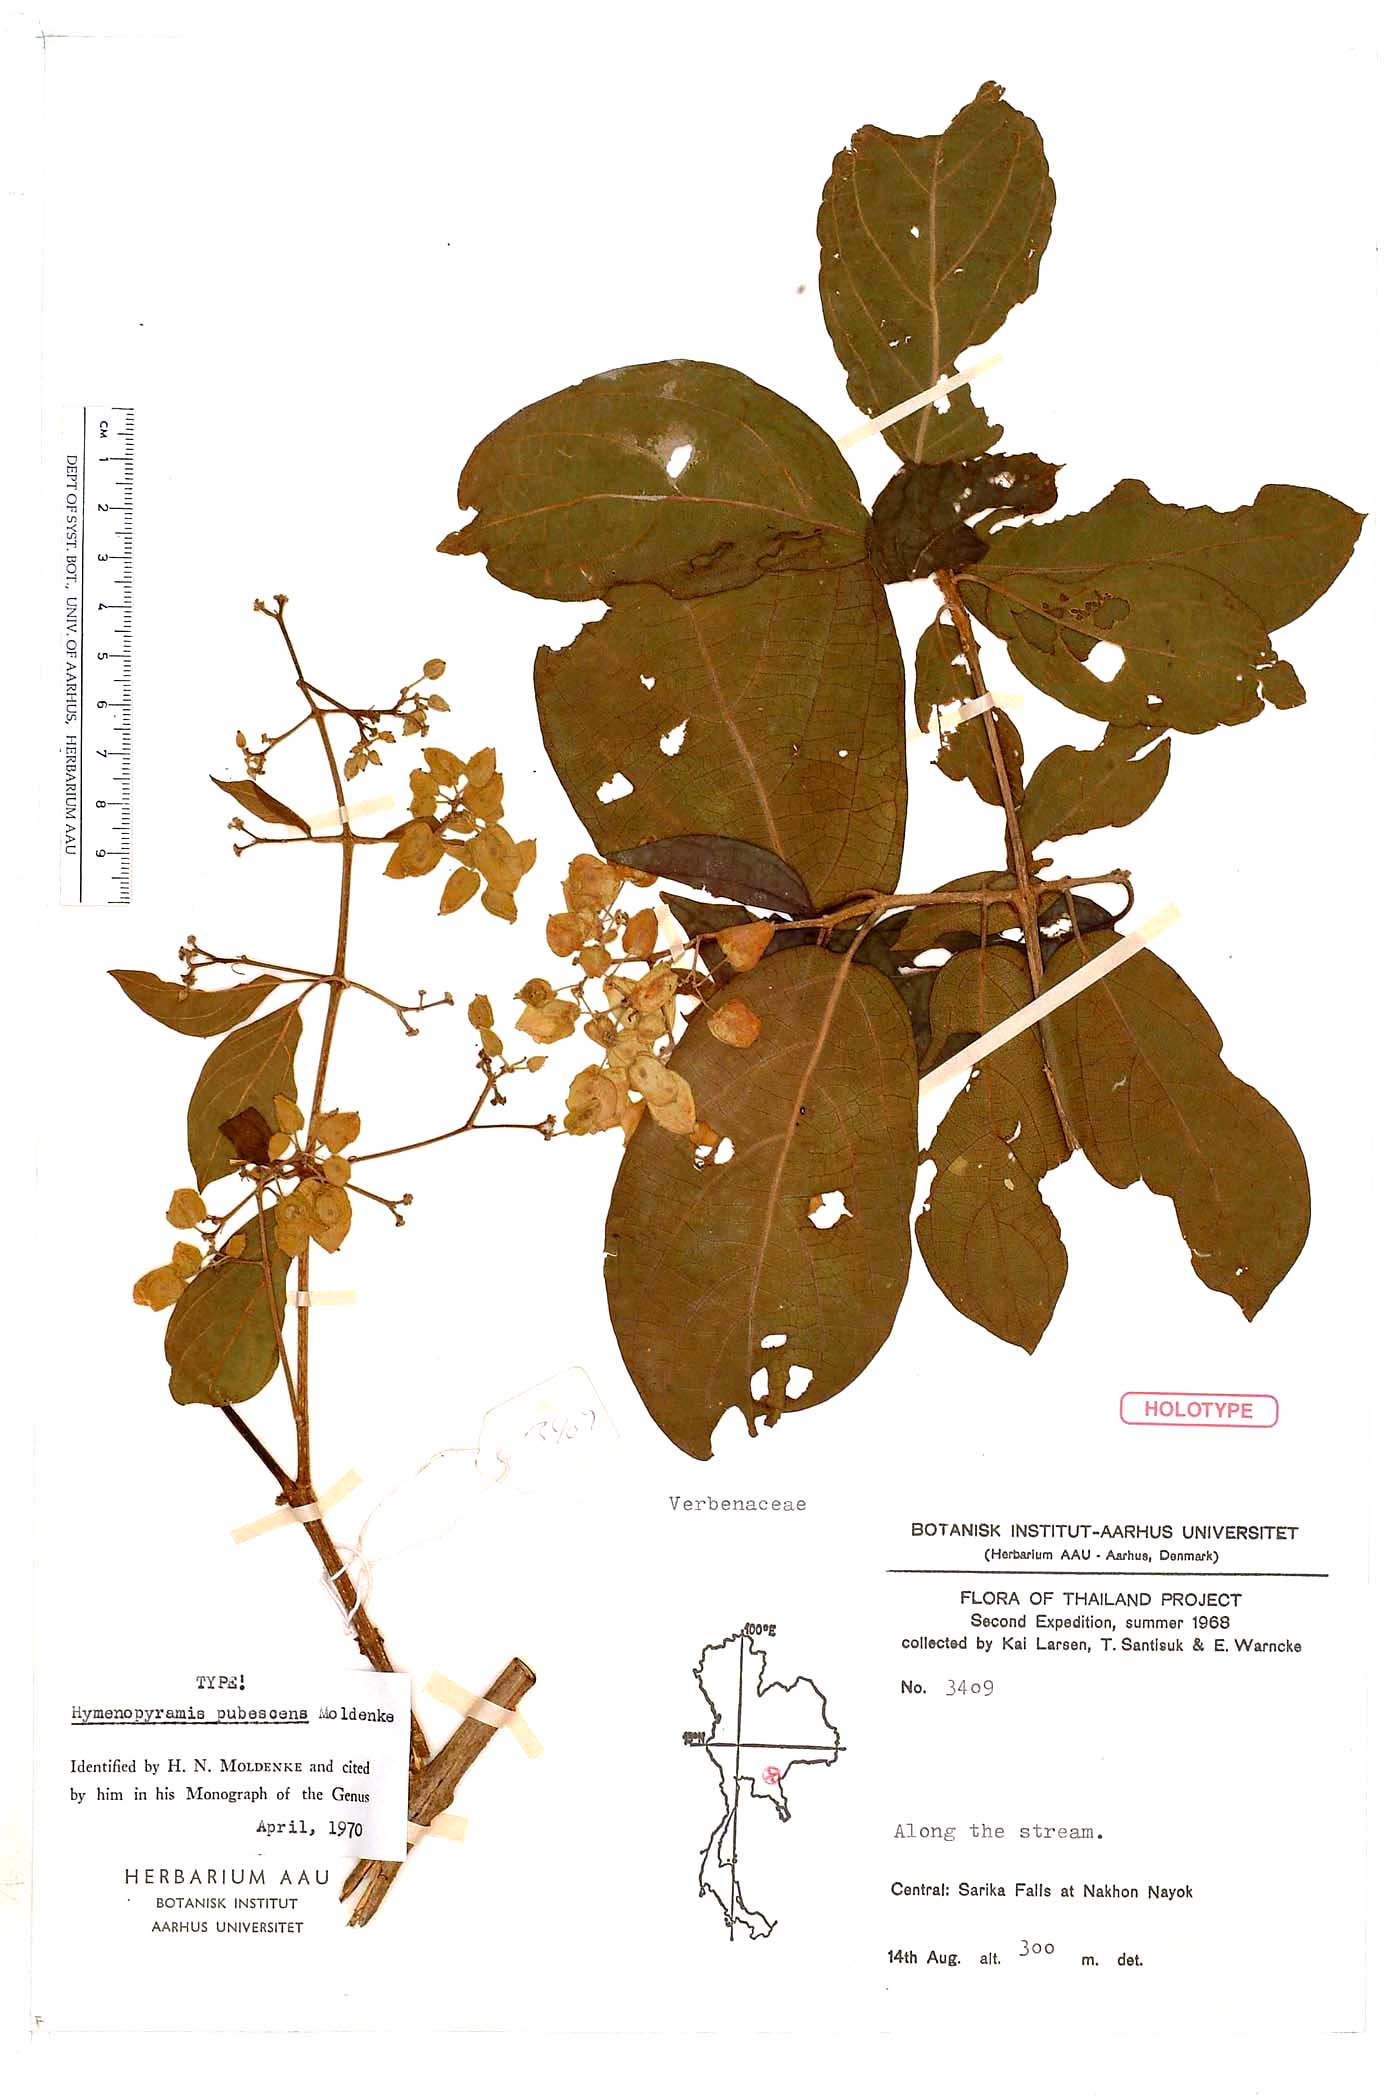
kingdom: Plantae
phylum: Tracheophyta
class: Magnoliopsida
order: Lamiales
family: Lamiaceae
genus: Hymenopyramis
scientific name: Hymenopyramis siamensis
